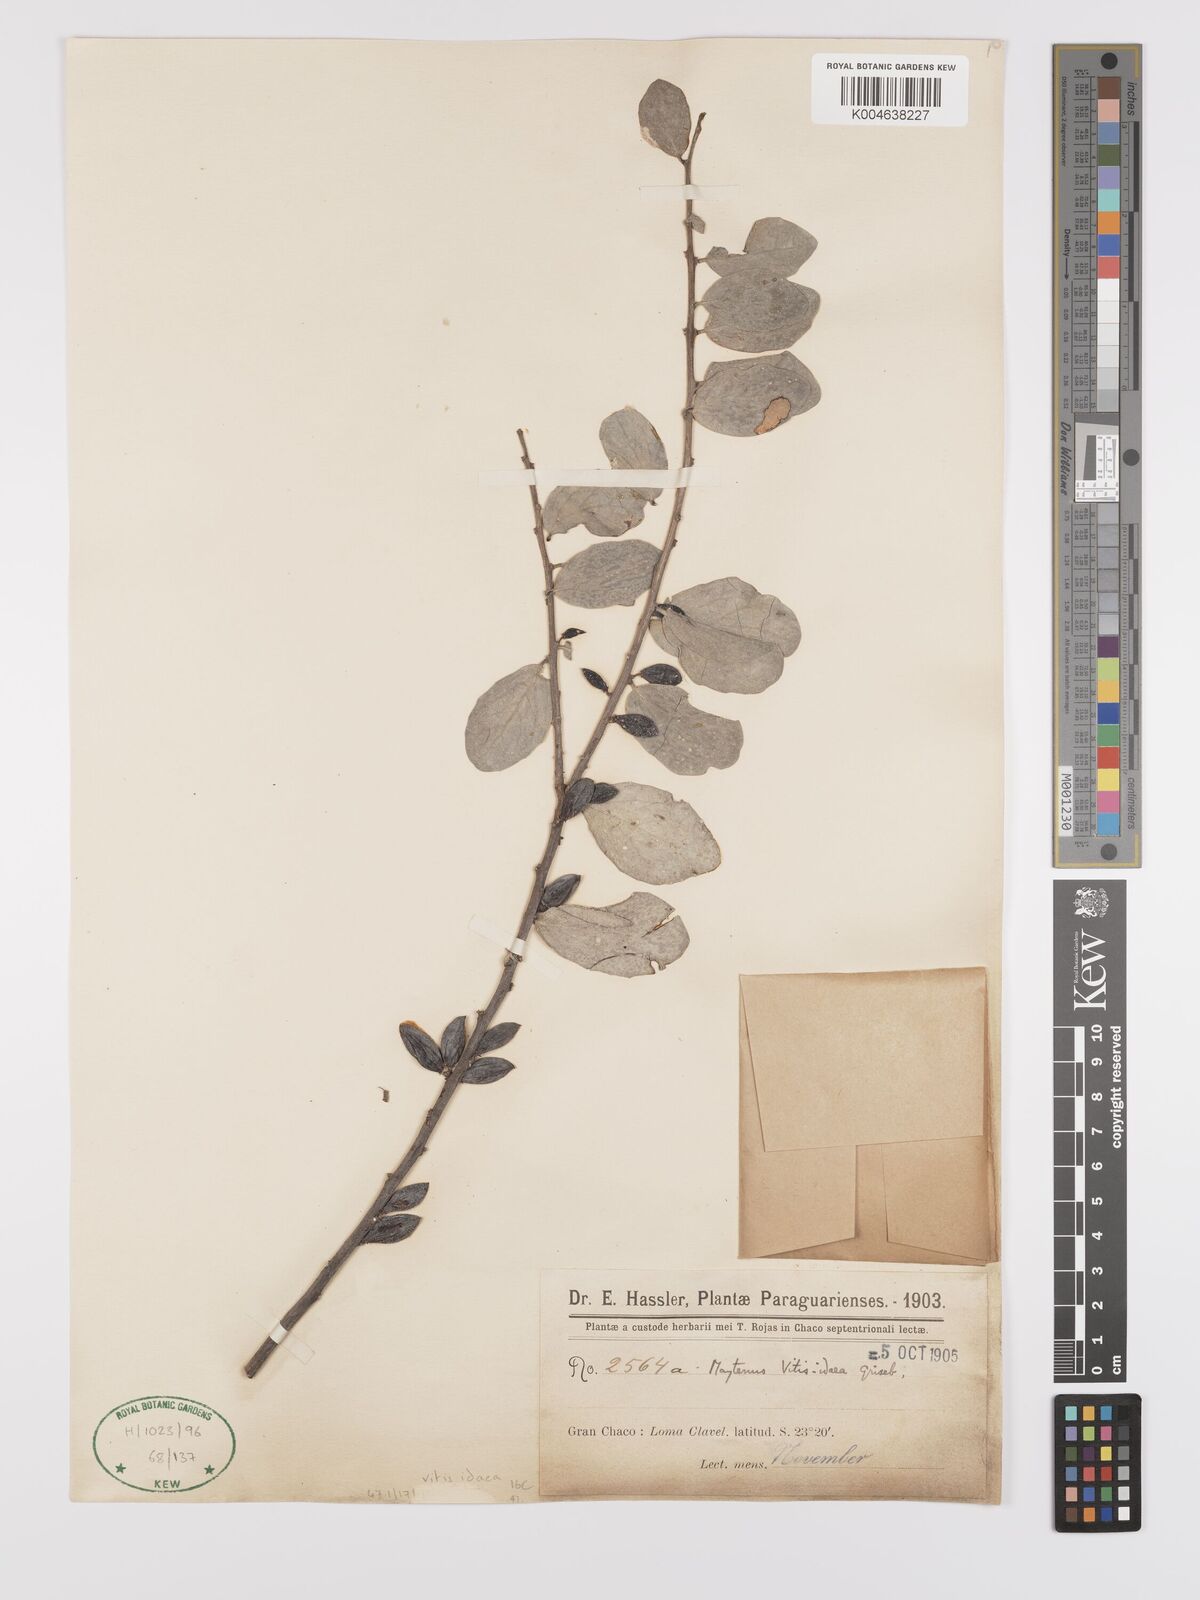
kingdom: Plantae
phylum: Tracheophyta
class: Magnoliopsida
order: Celastrales
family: Celastraceae
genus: Tricerma
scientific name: Tricerma vitis-idaeum
